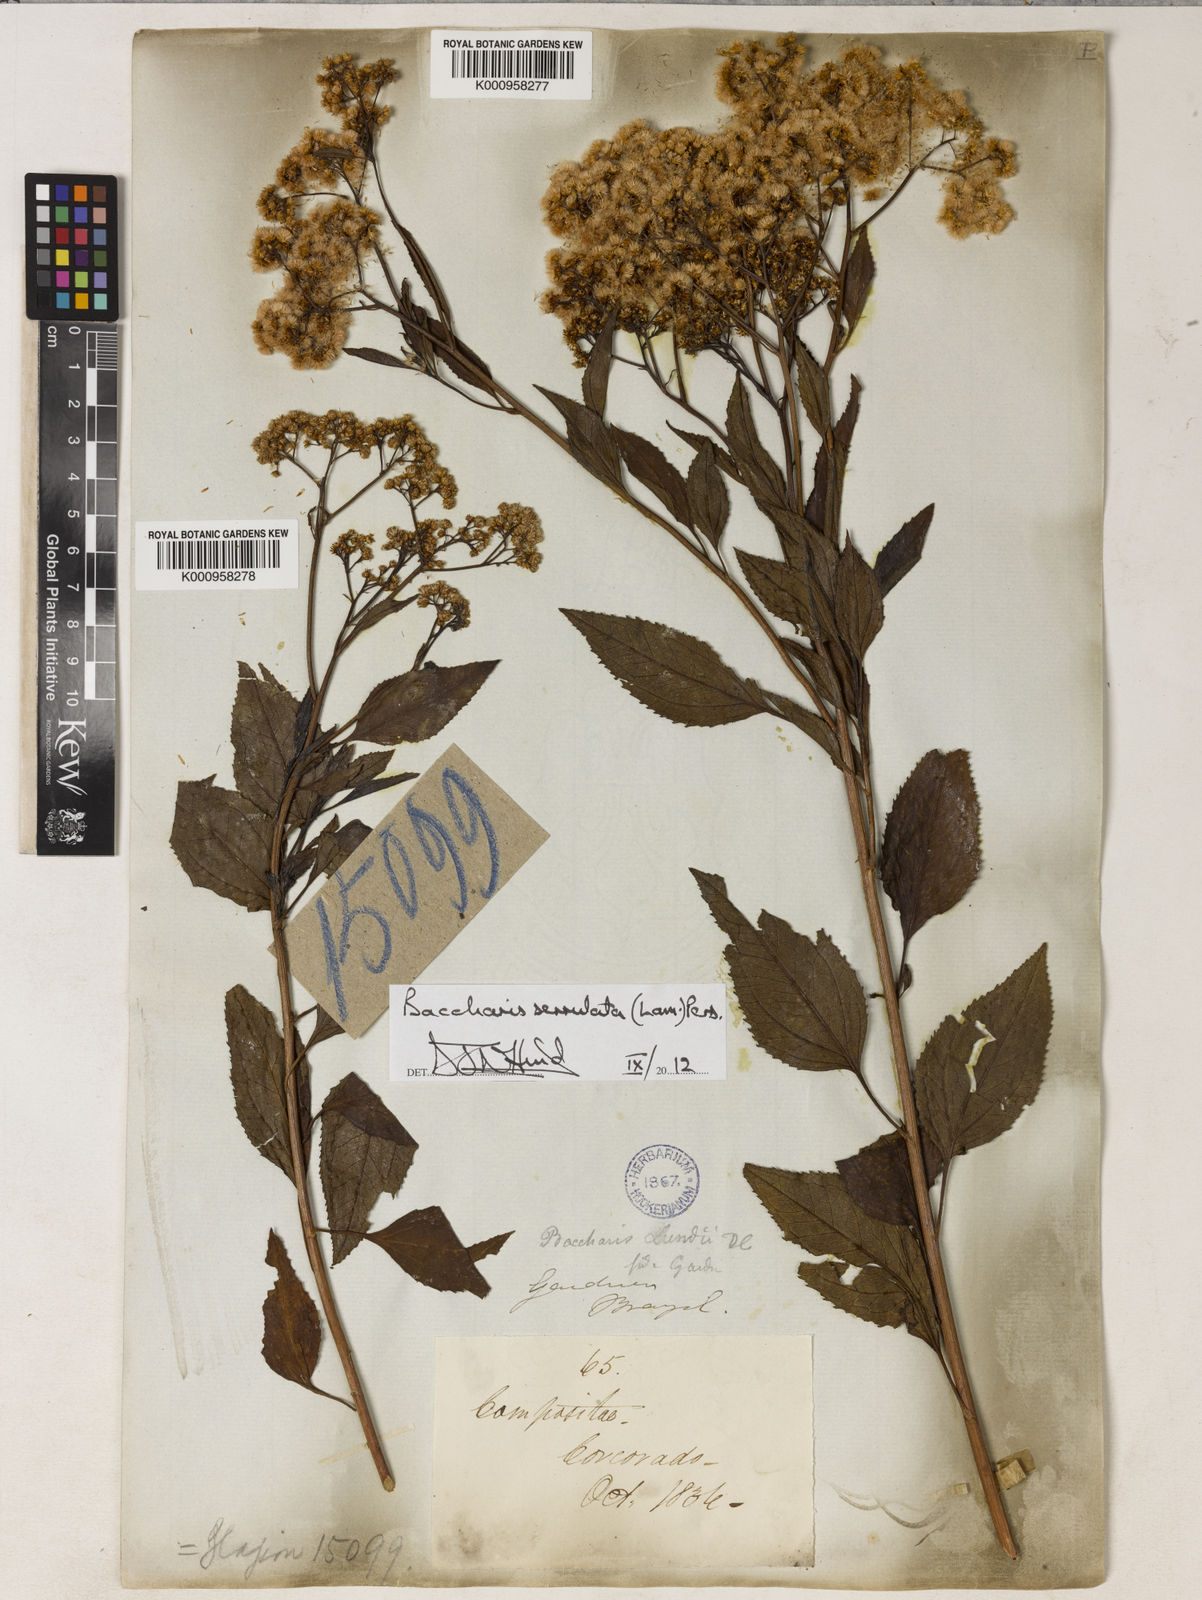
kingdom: Plantae
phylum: Tracheophyta
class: Magnoliopsida
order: Asterales
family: Asteraceae
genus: Baccharis
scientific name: Baccharis serrulata
